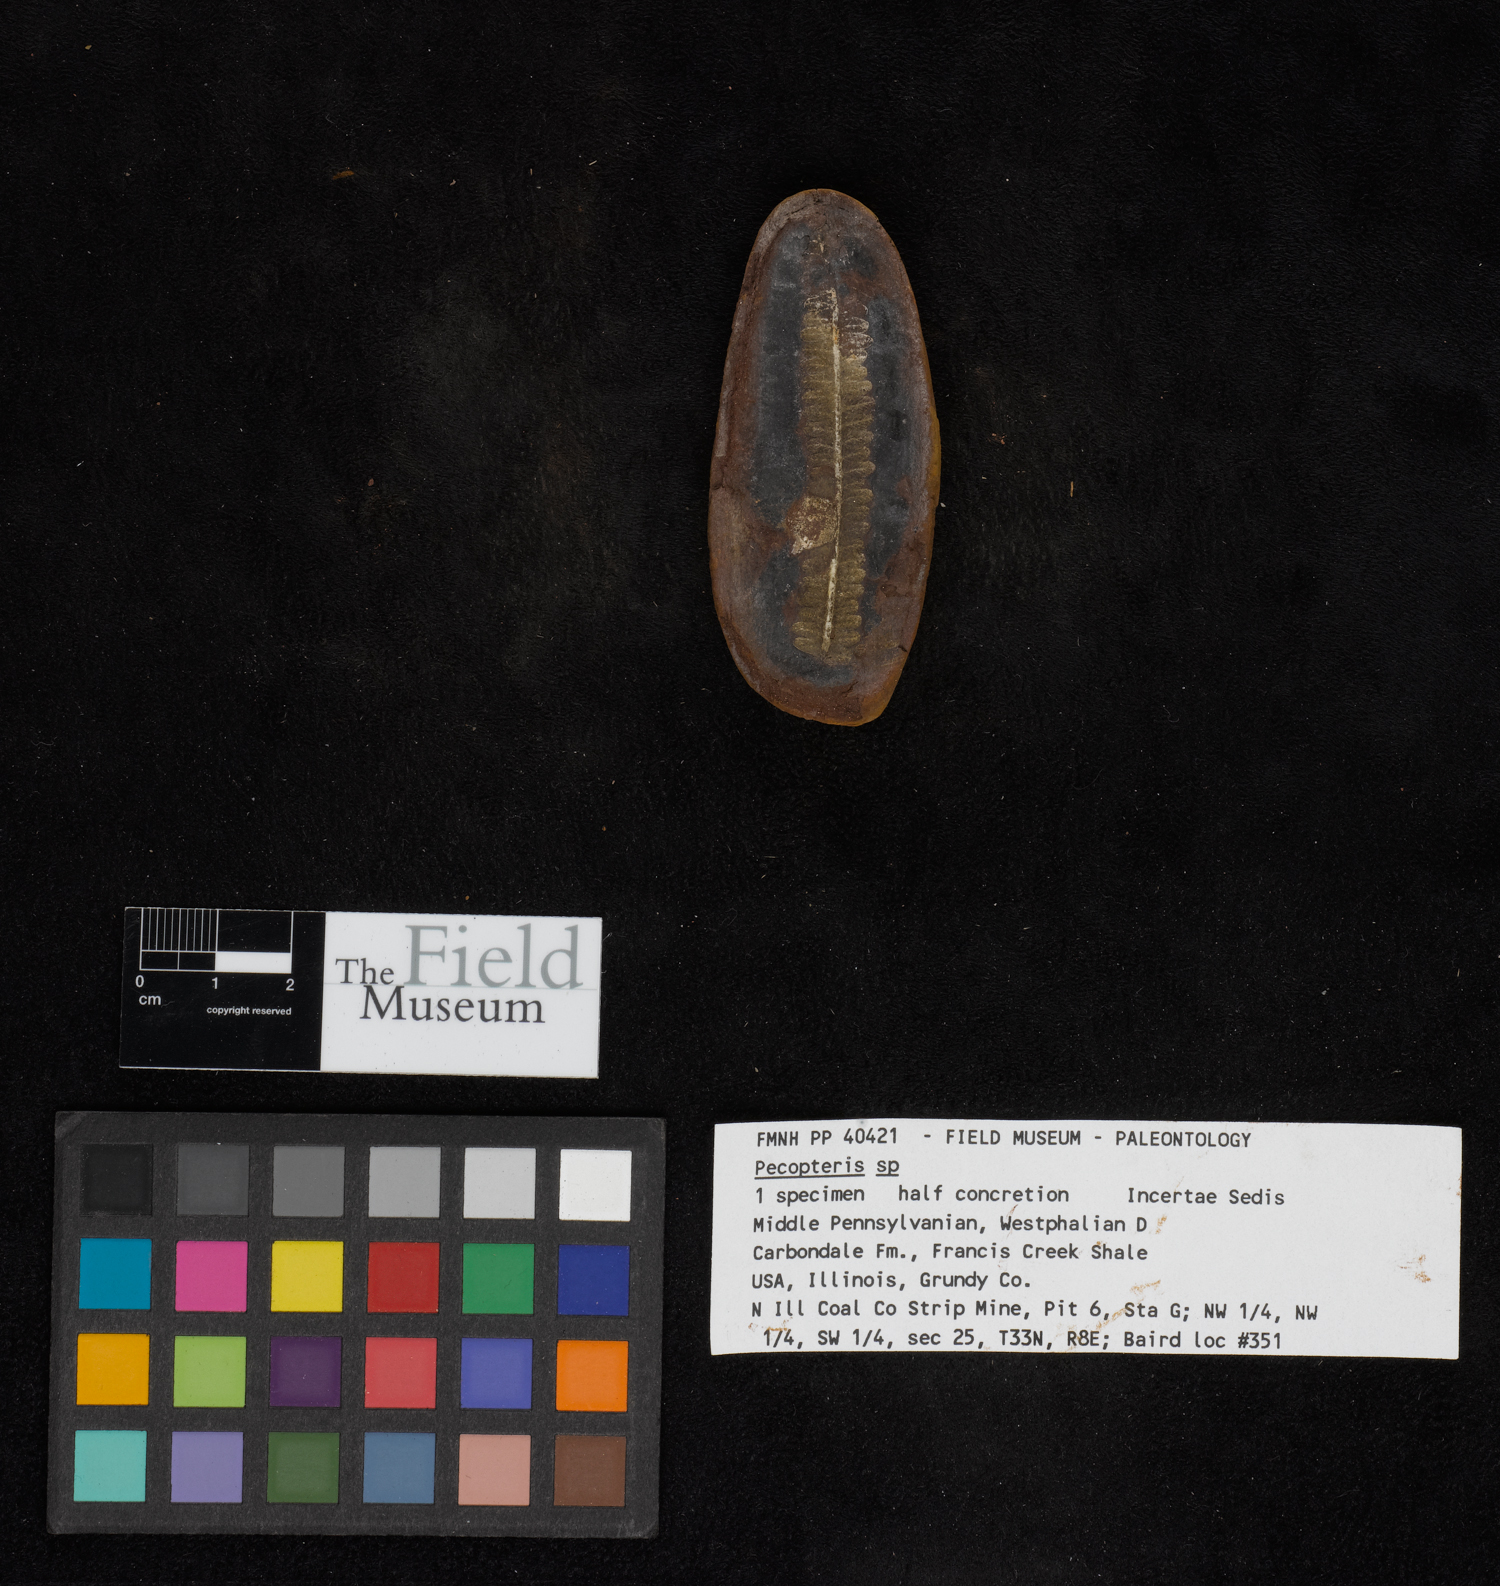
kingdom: Plantae
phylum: Tracheophyta
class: Polypodiopsida
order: Marattiales
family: Asterothecaceae
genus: Pecopteris
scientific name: Pecopteris
